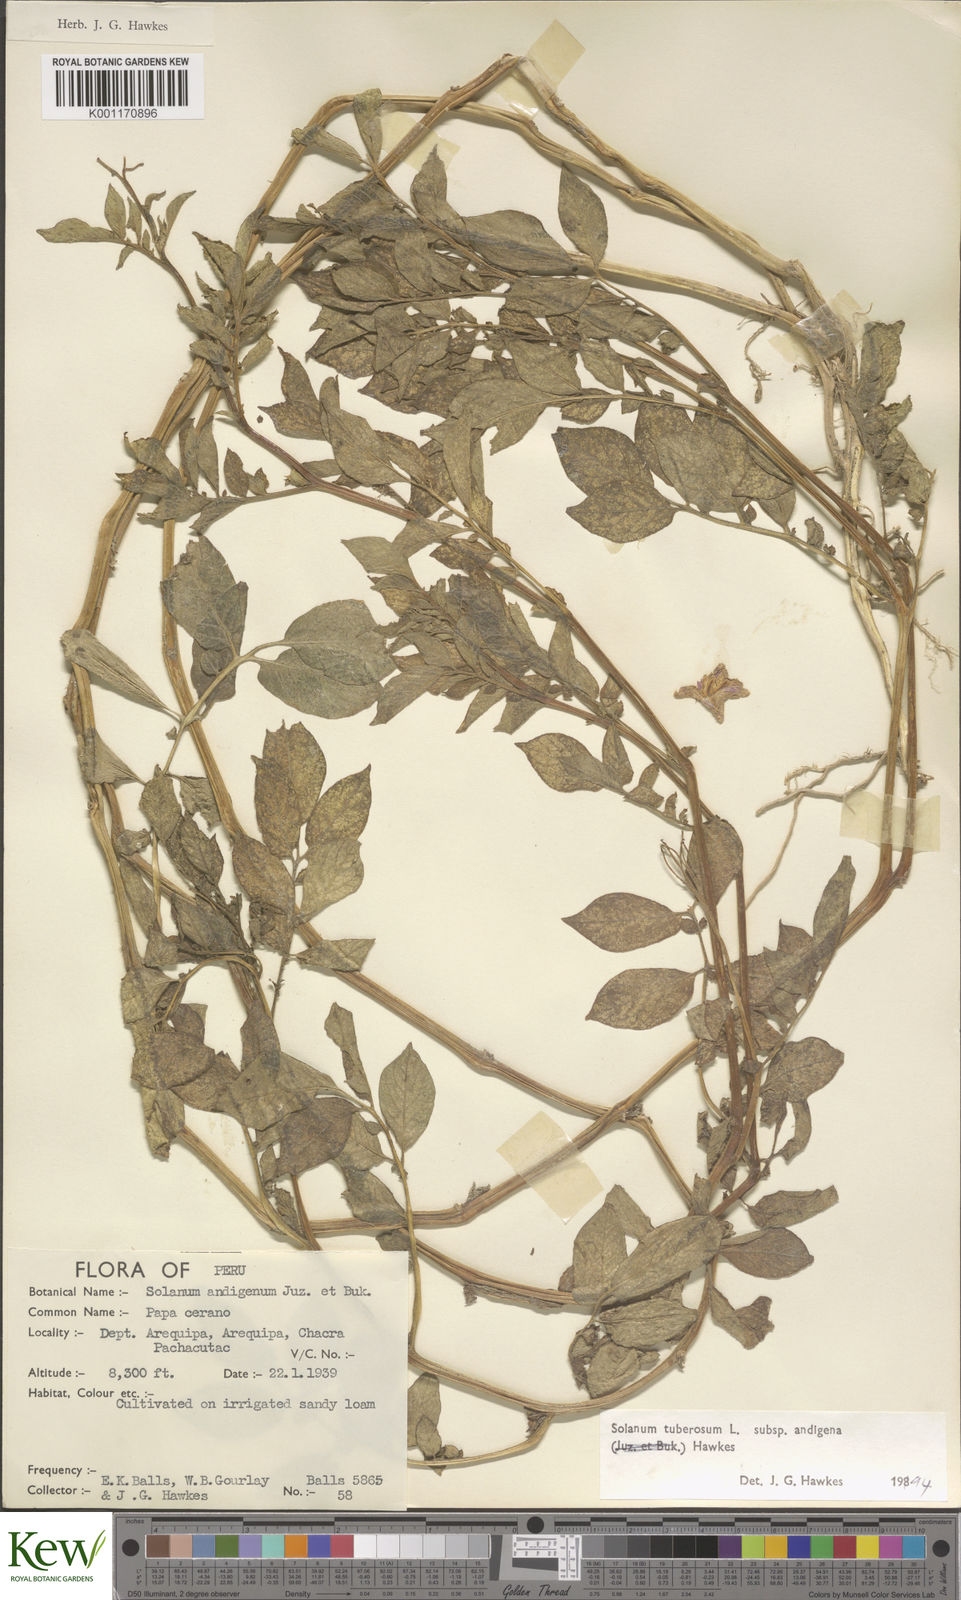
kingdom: Plantae
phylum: Tracheophyta
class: Magnoliopsida
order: Solanales
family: Solanaceae
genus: Solanum
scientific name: Solanum tuberosum
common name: Potato
